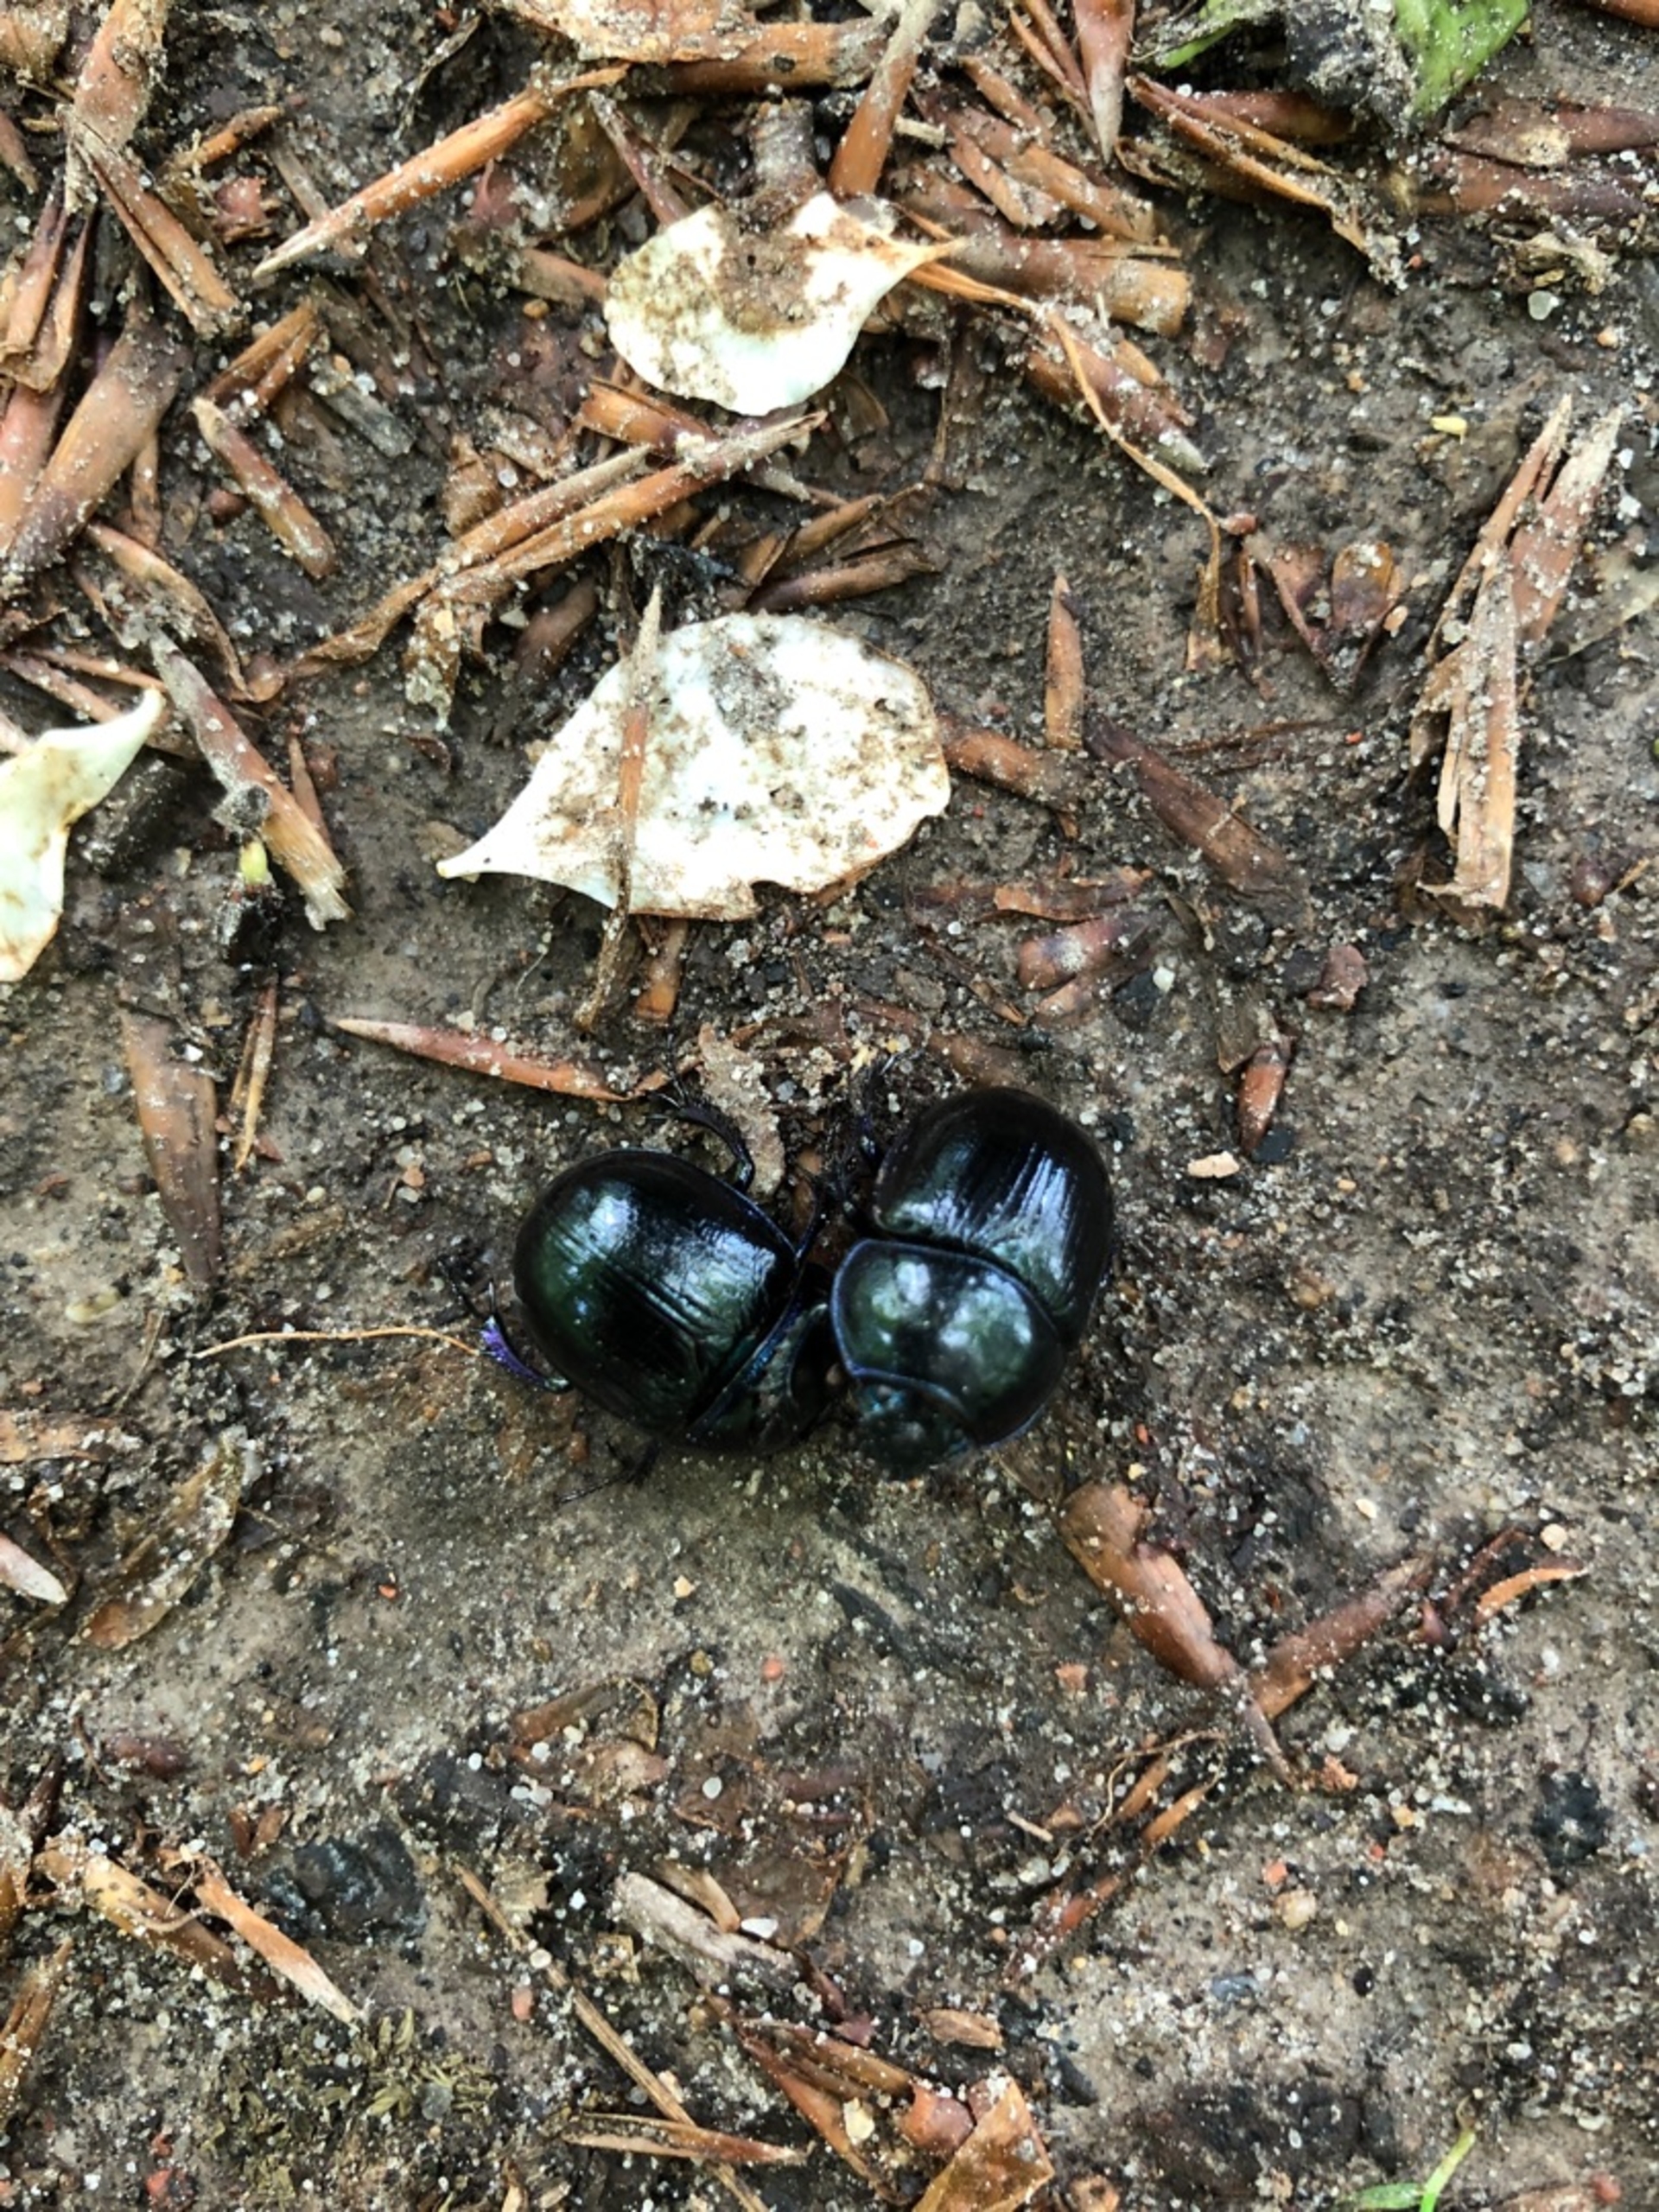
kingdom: Animalia
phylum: Arthropoda
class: Insecta
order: Coleoptera
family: Geotrupidae
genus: Anoplotrupes
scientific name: Anoplotrupes stercorosus
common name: Skovskarnbasse
